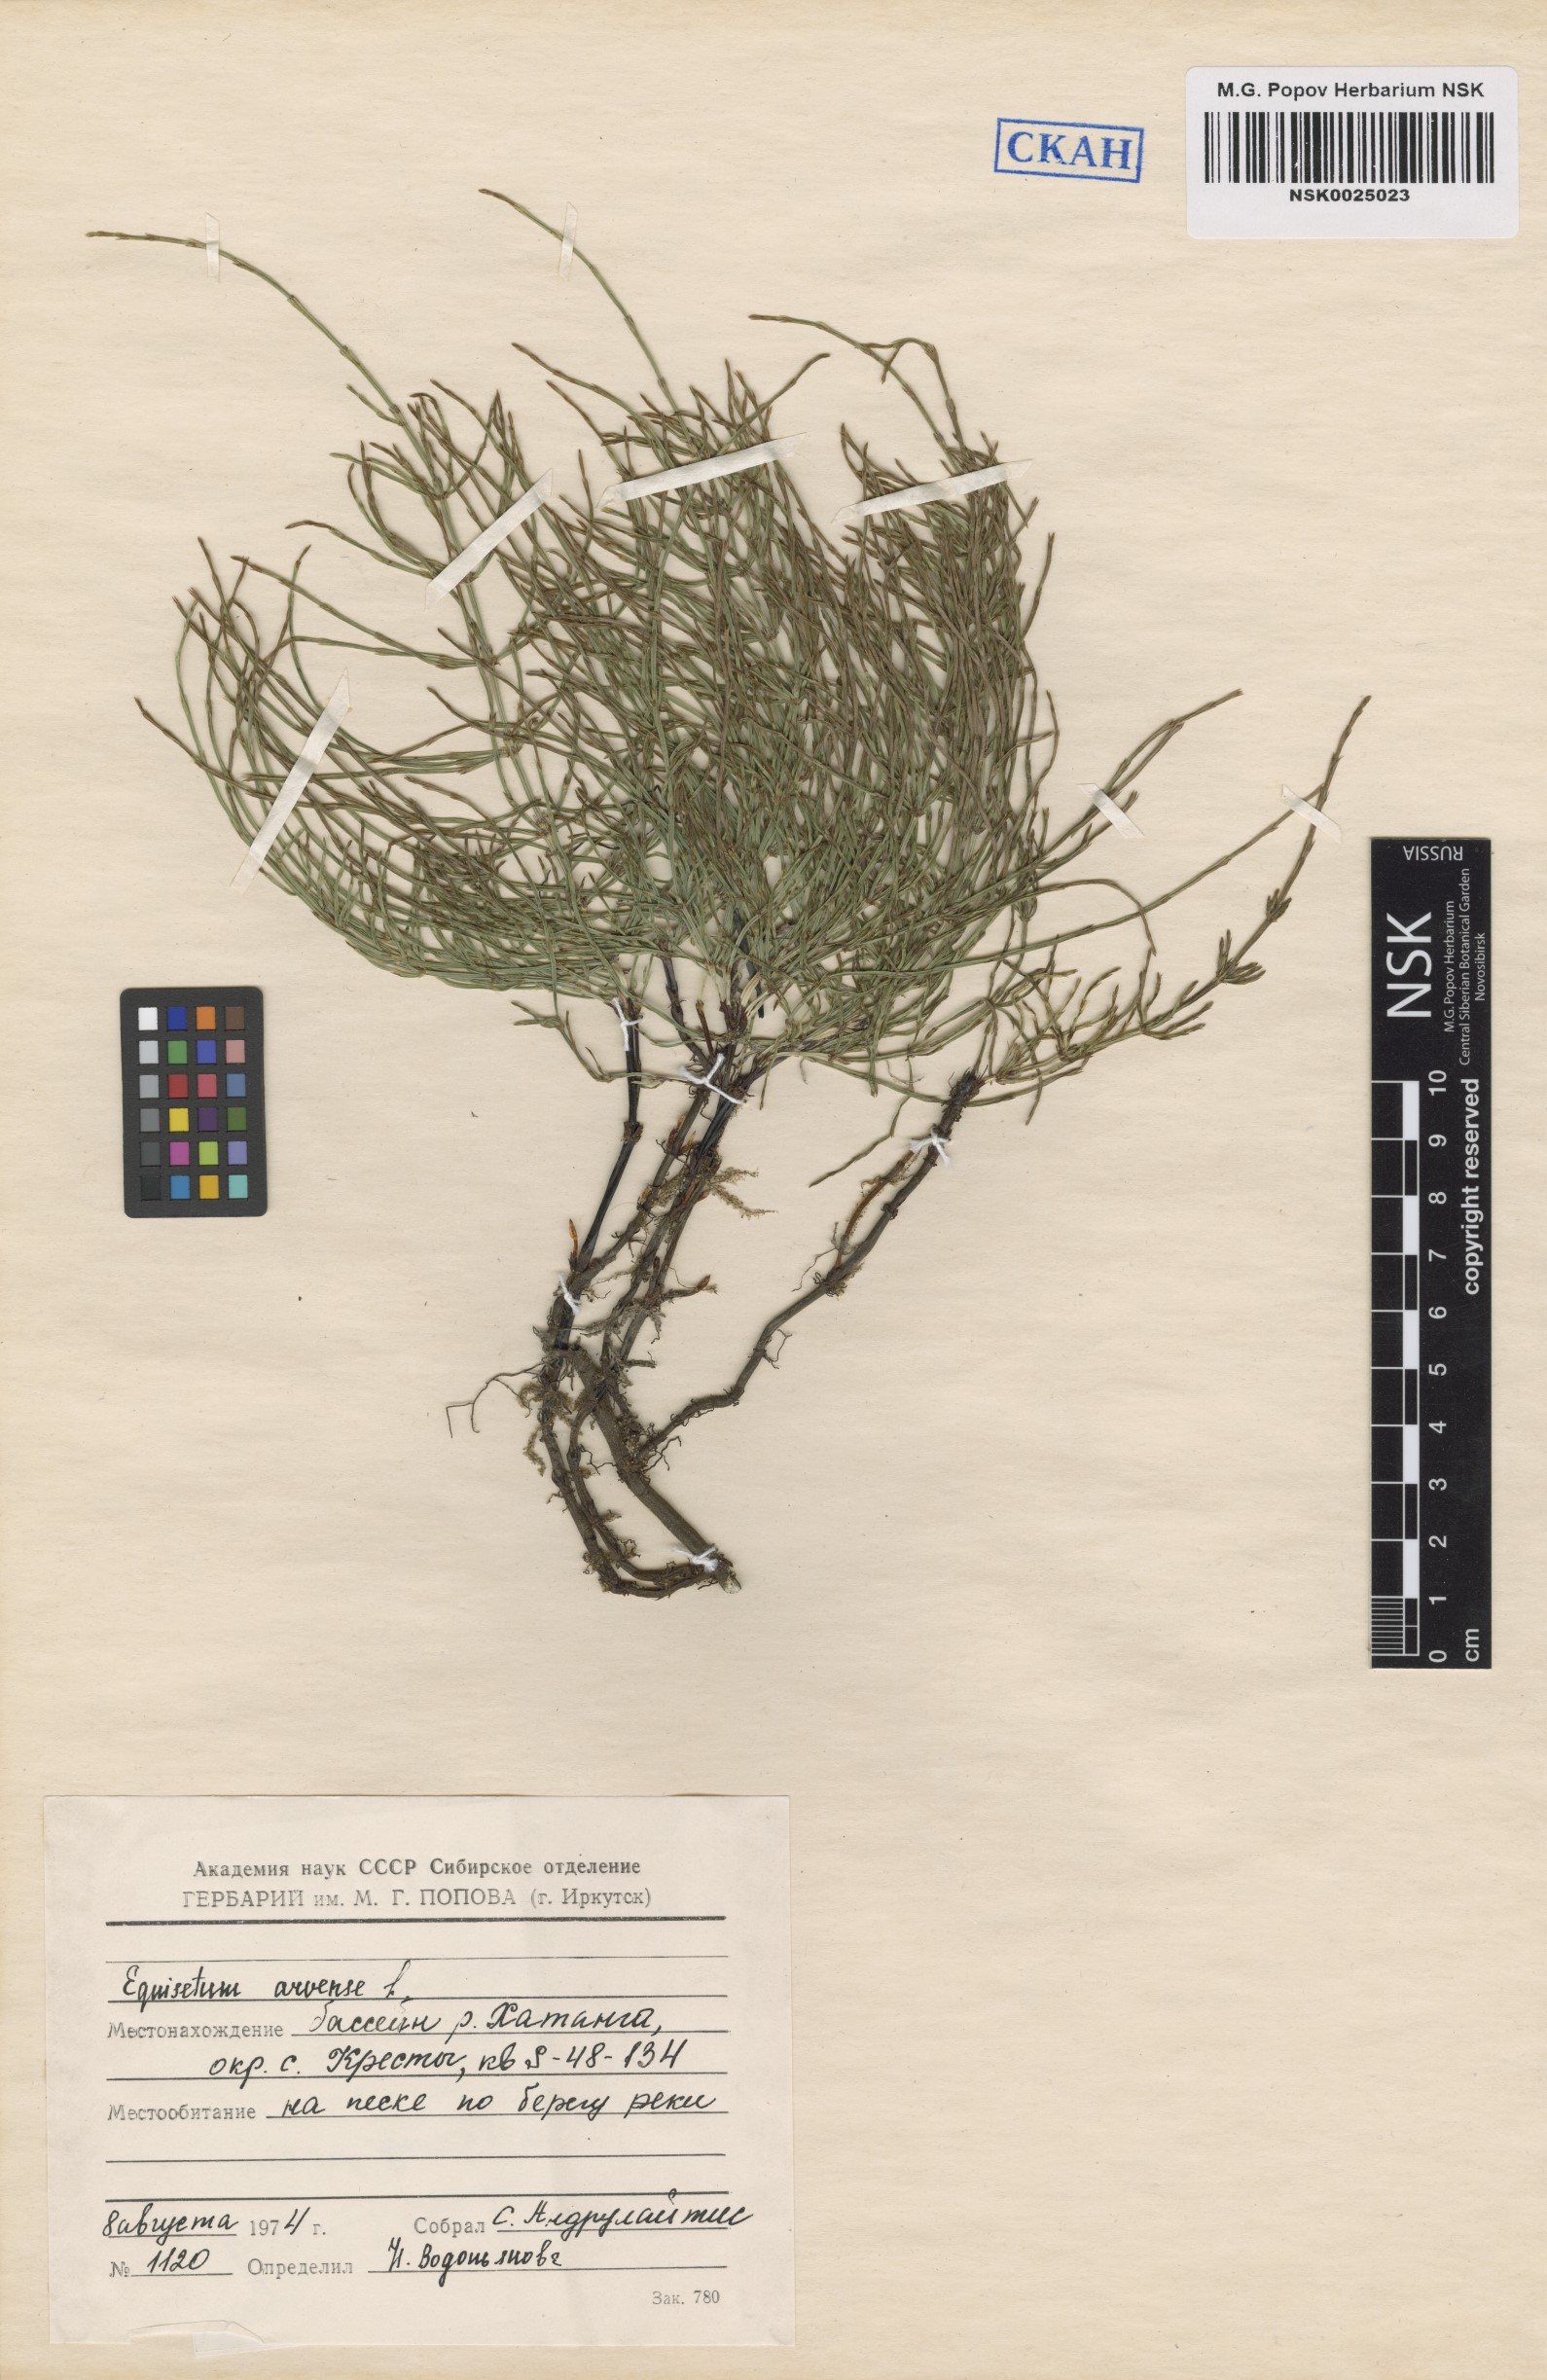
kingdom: Plantae
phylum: Tracheophyta
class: Polypodiopsida
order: Equisetales
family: Equisetaceae
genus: Equisetum
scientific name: Equisetum arvense
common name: Field horsetail
